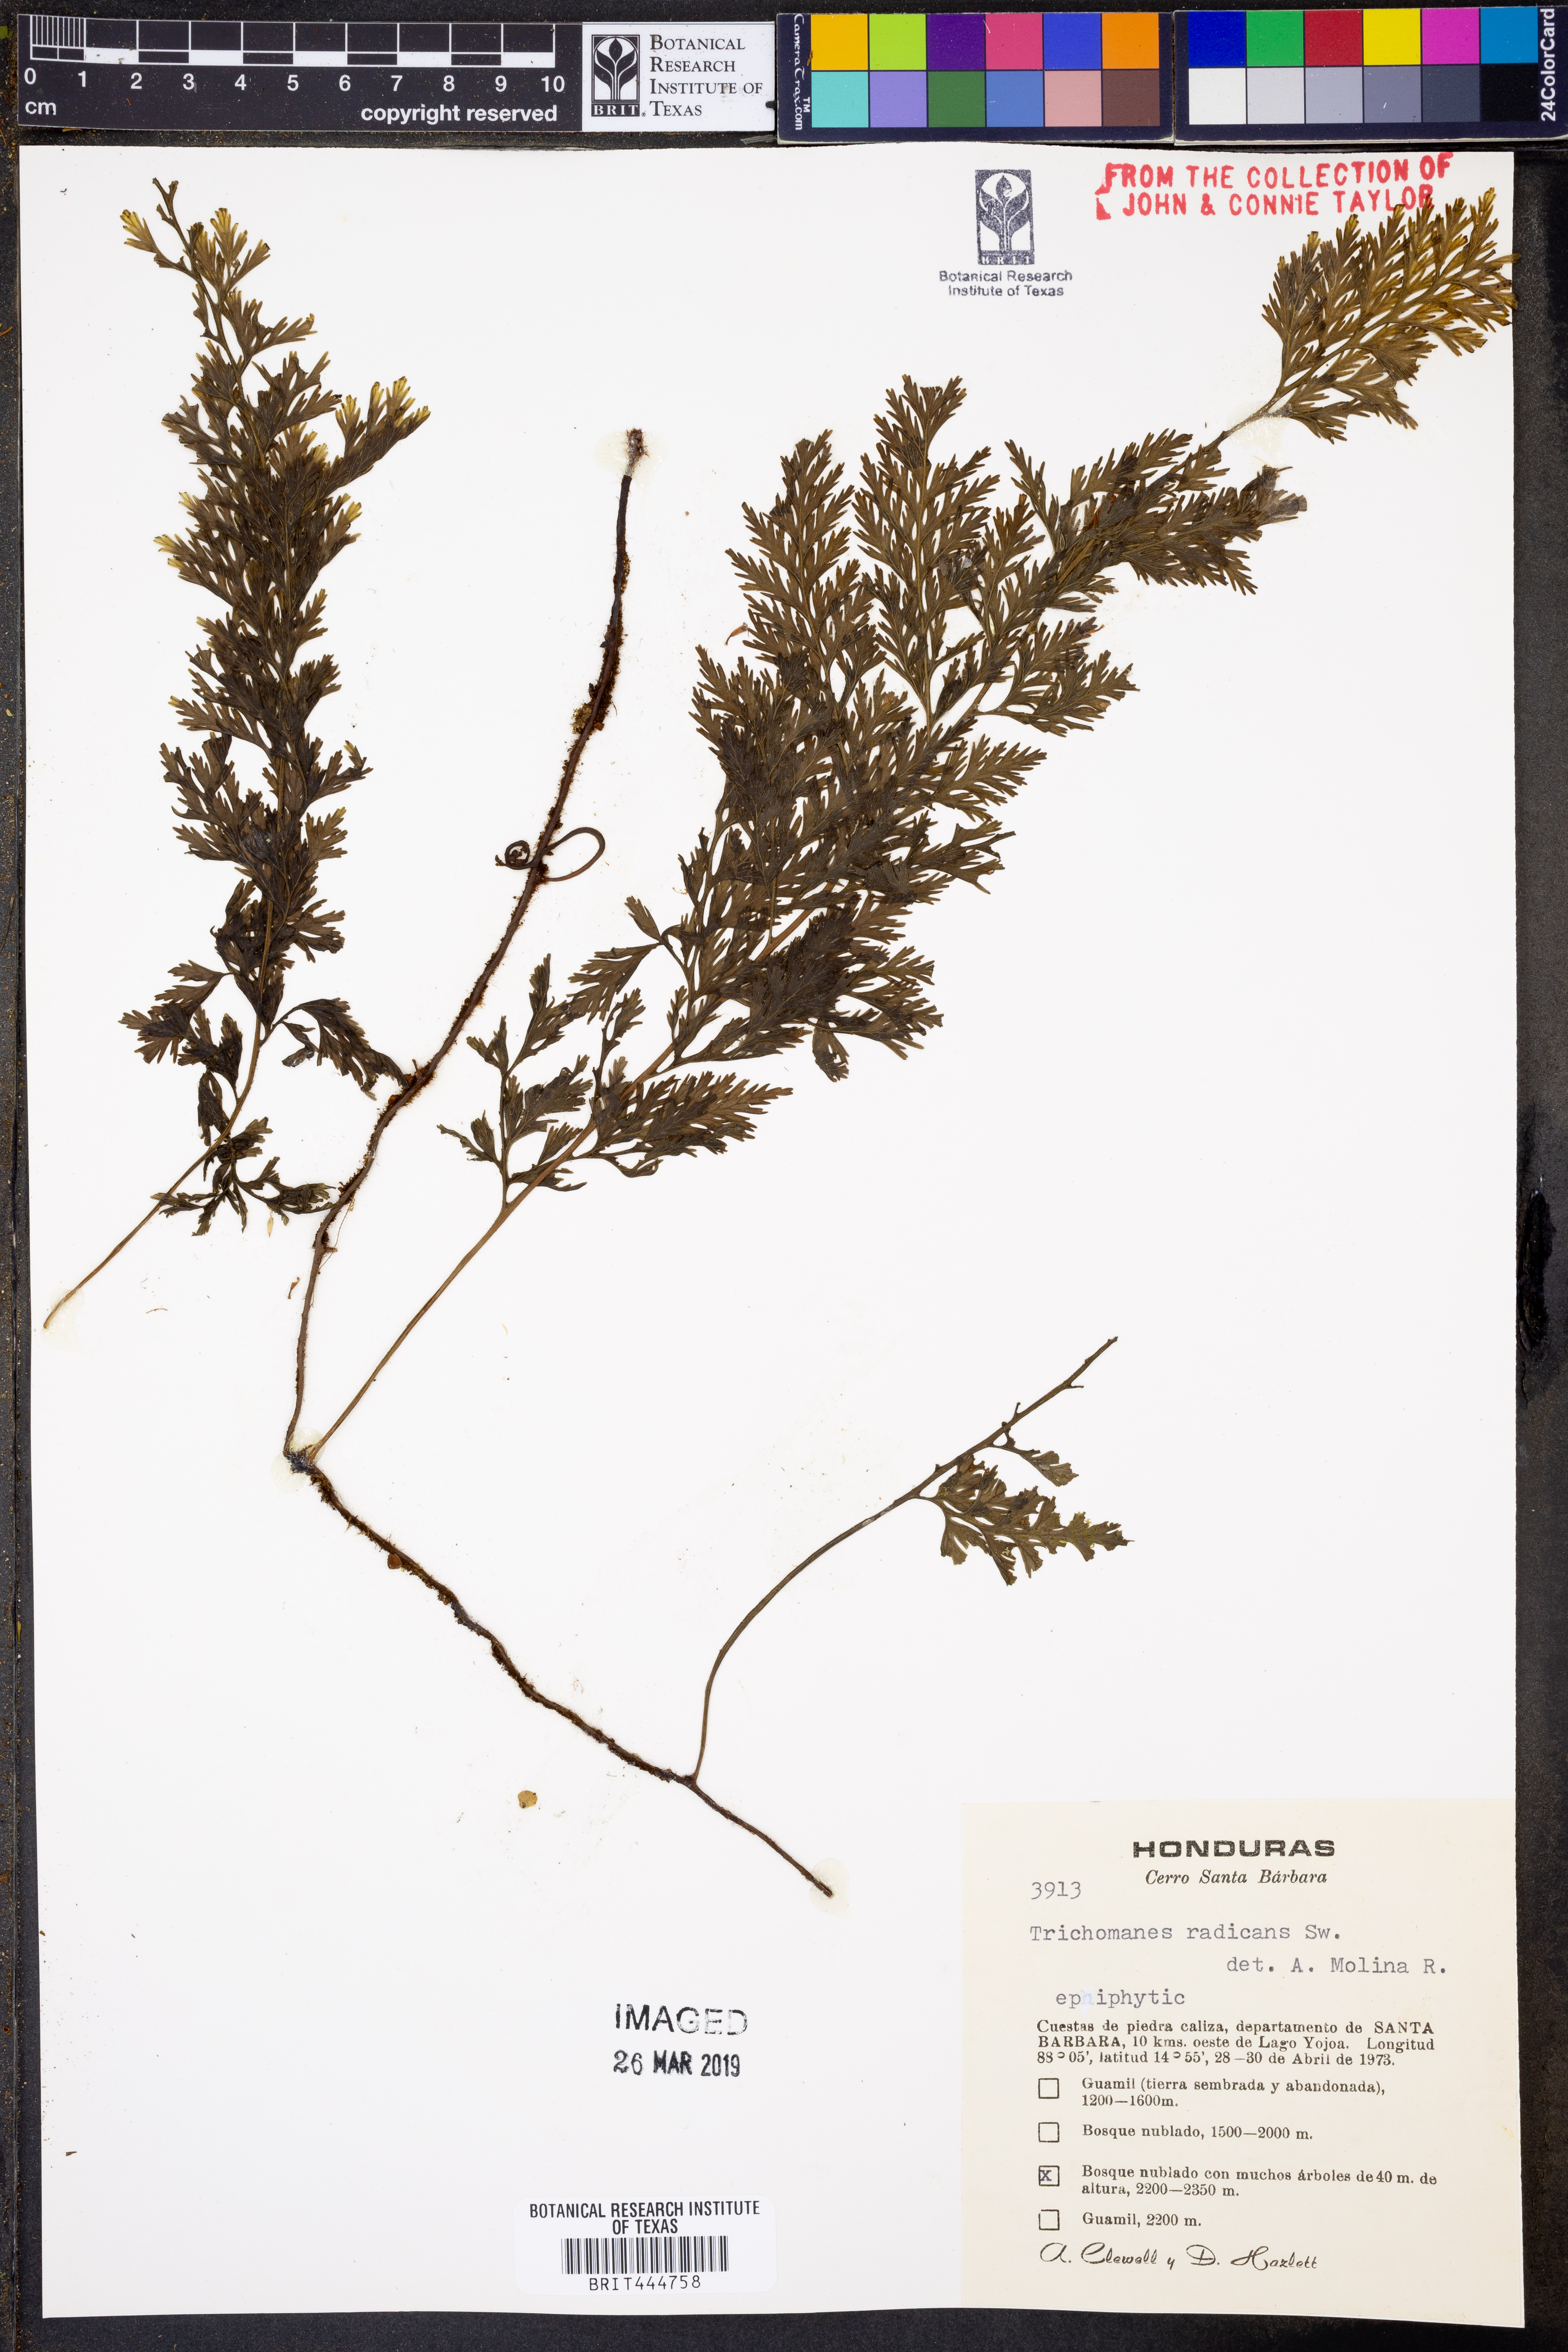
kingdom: Plantae
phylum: Tracheophyta
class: Polypodiopsida
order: Hymenophyllales
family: Hymenophyllaceae
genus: Vandenboschia
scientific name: Vandenboschia radicans
